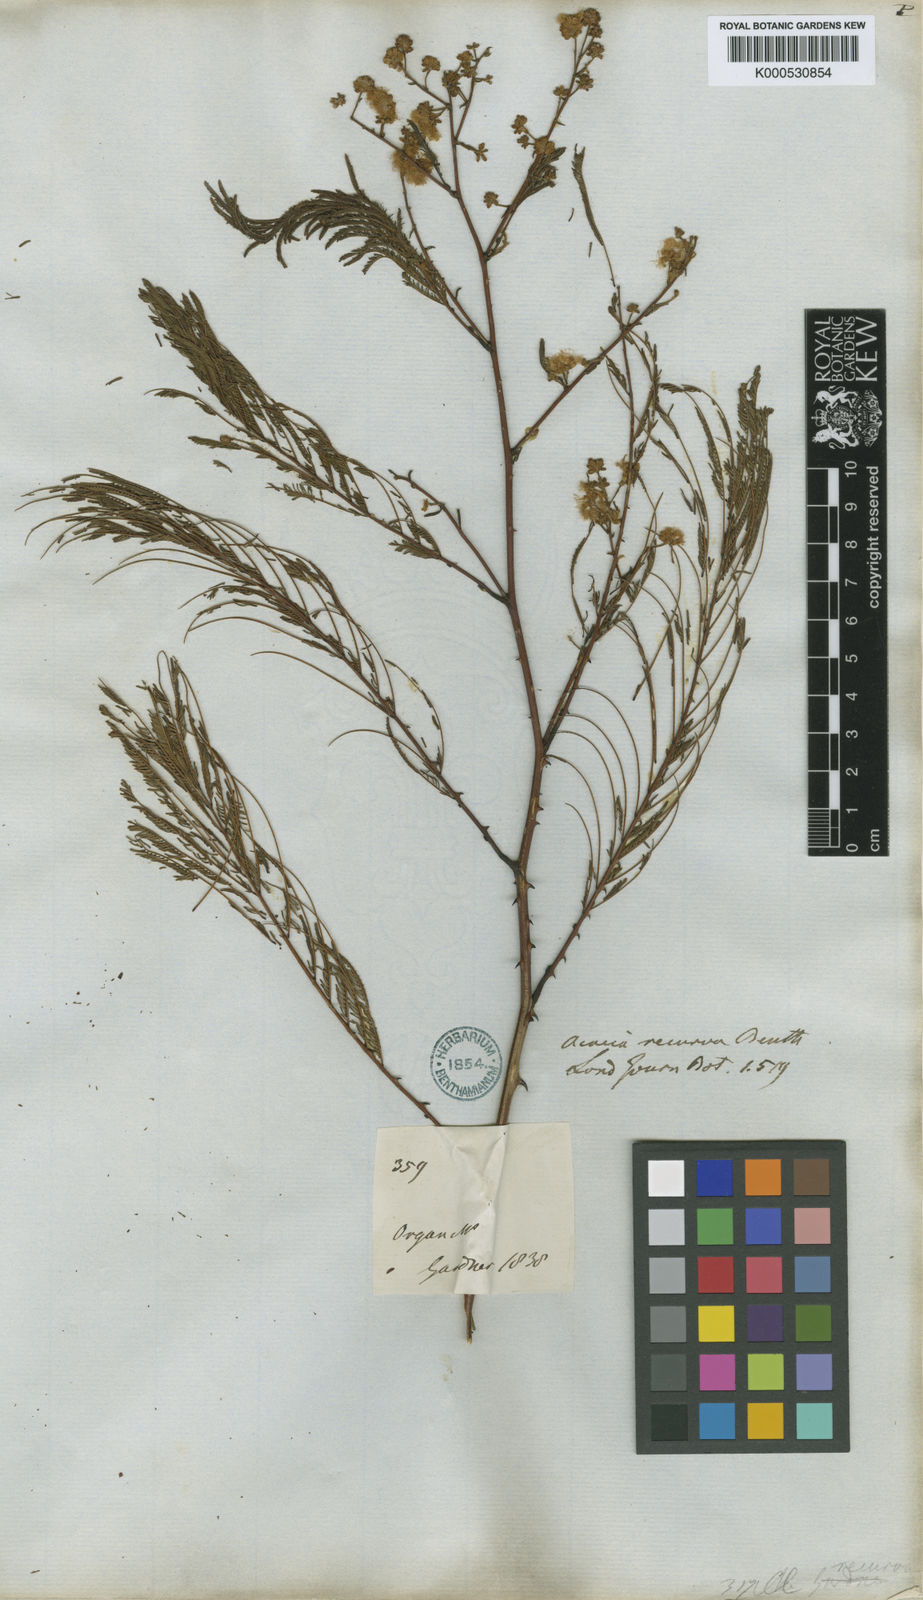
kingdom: Plantae
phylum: Tracheophyta
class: Magnoliopsida
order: Fabales
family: Fabaceae
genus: Senegalia
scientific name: Senegalia riparia
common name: Catch-and-keep
